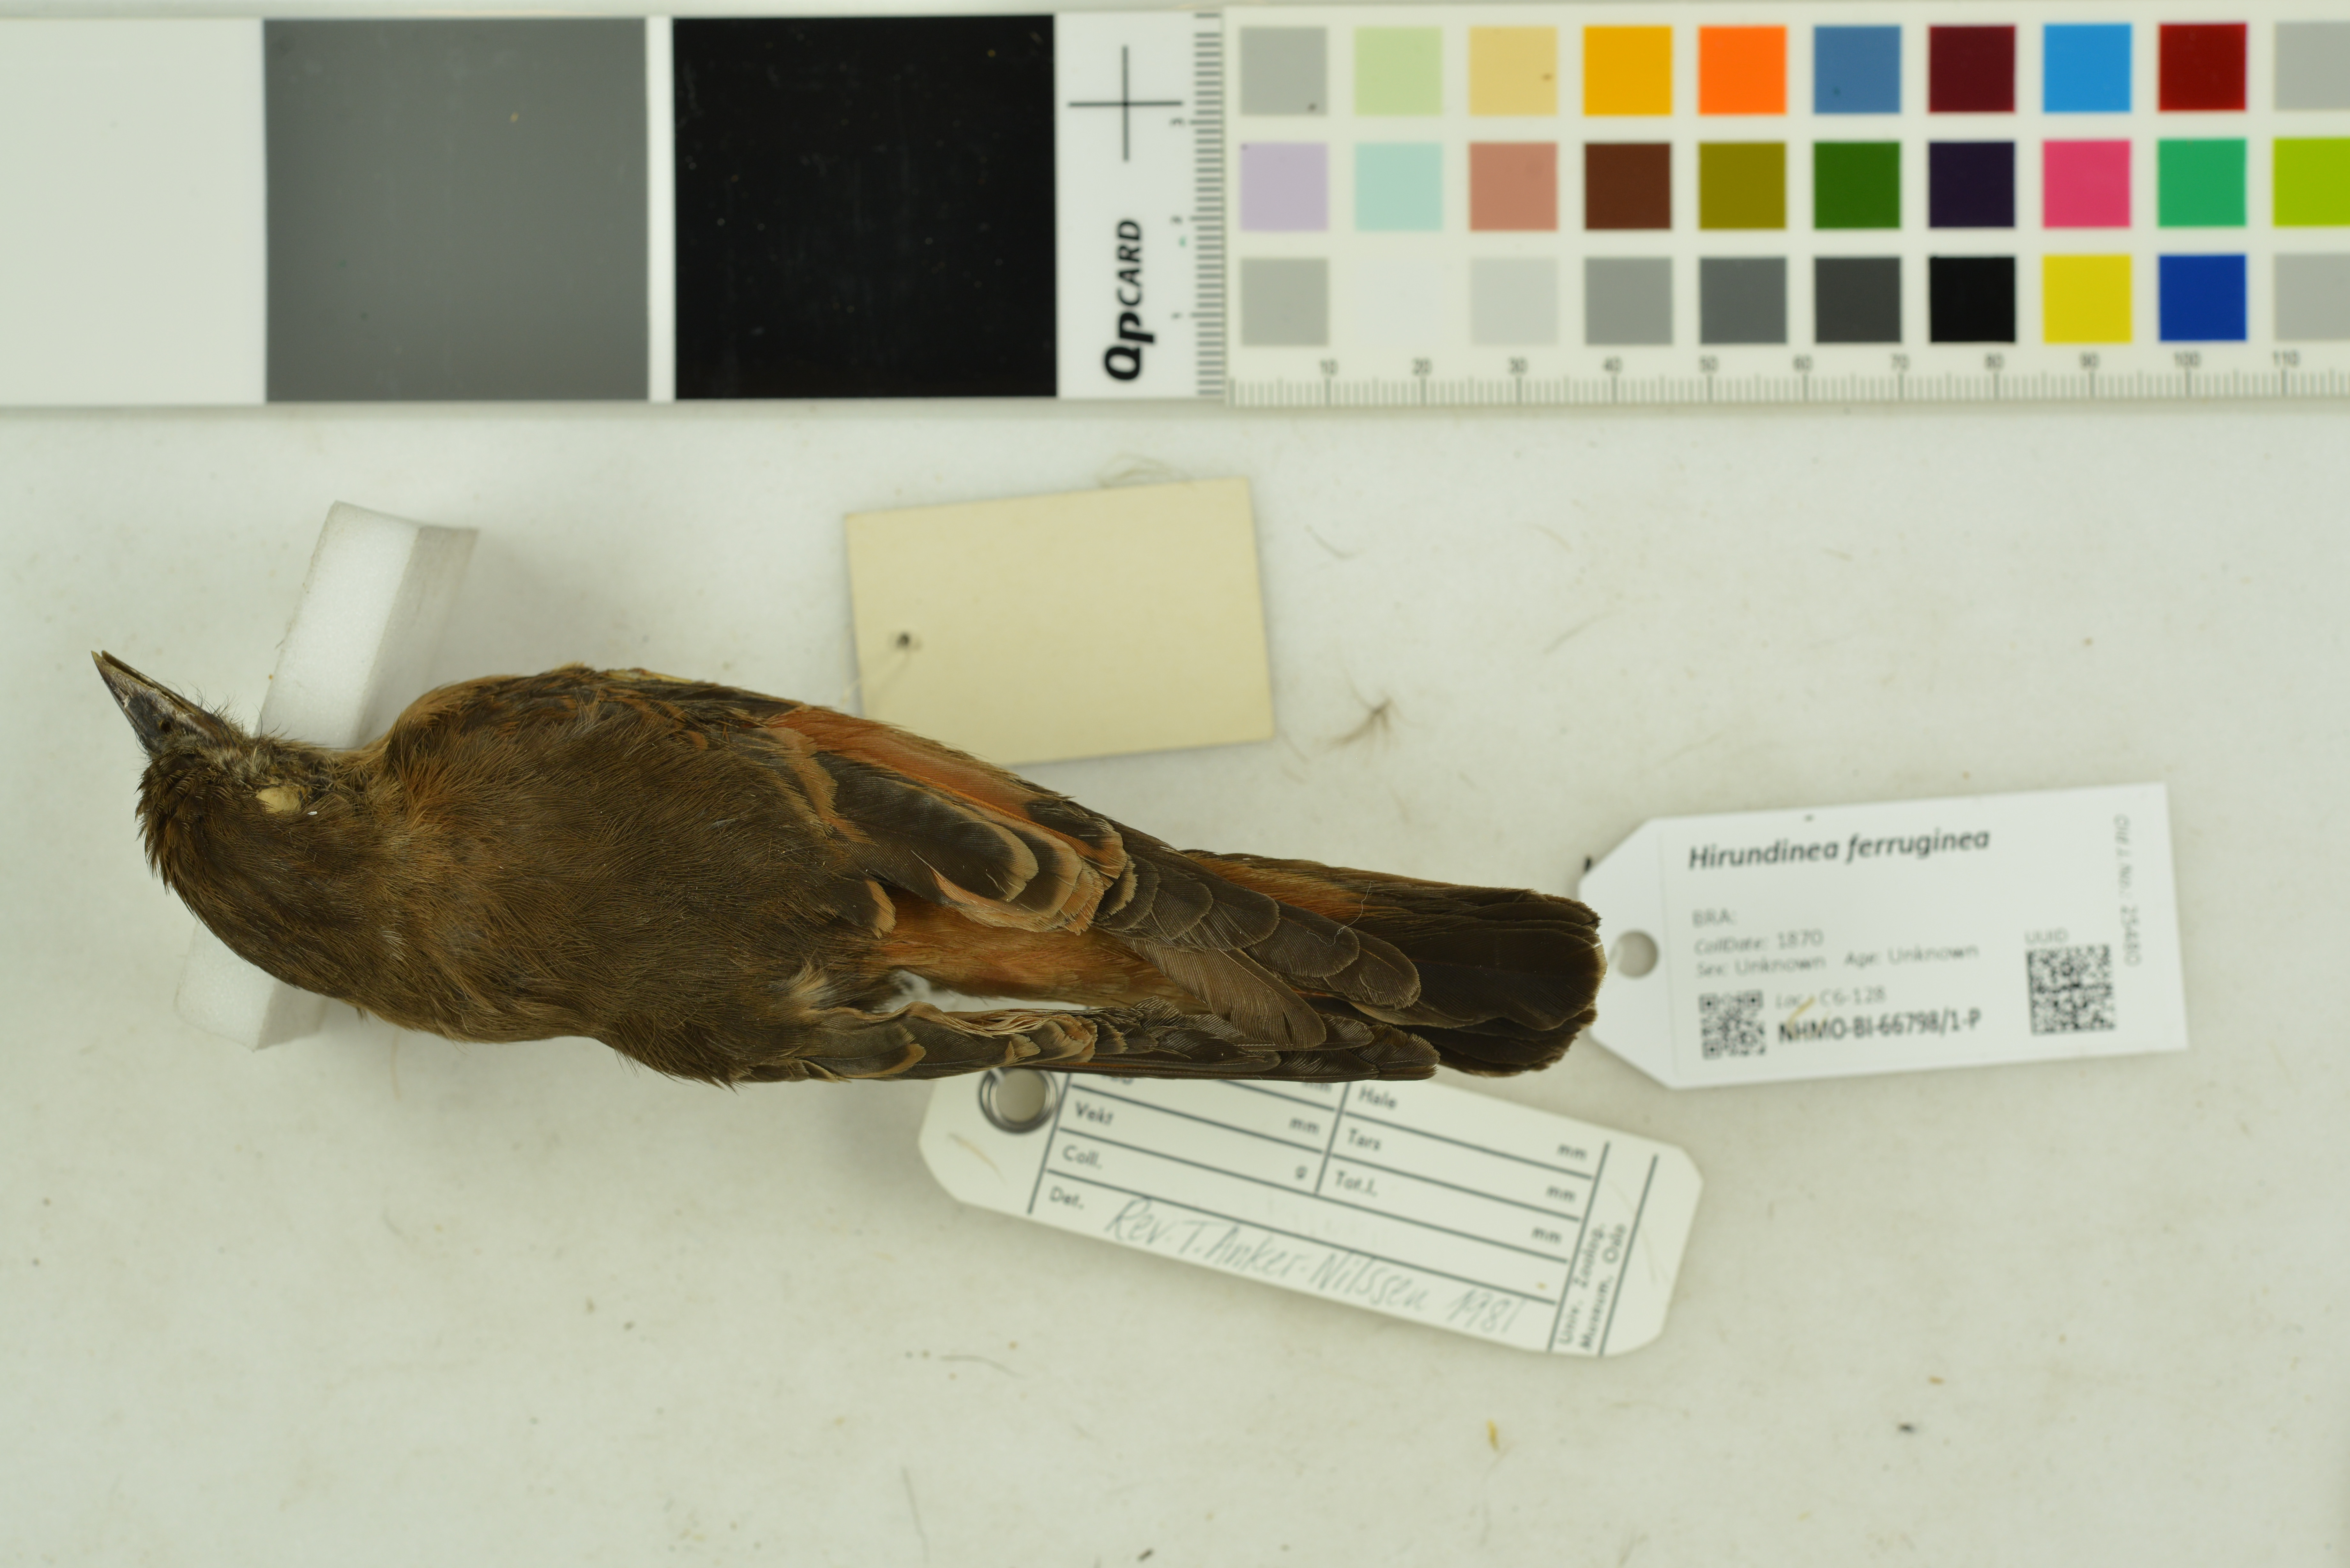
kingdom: Animalia
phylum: Chordata
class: Aves
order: Passeriformes
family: Tyrannidae
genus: Hirundinea
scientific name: Hirundinea ferruginea
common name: Cliff flycatcher
